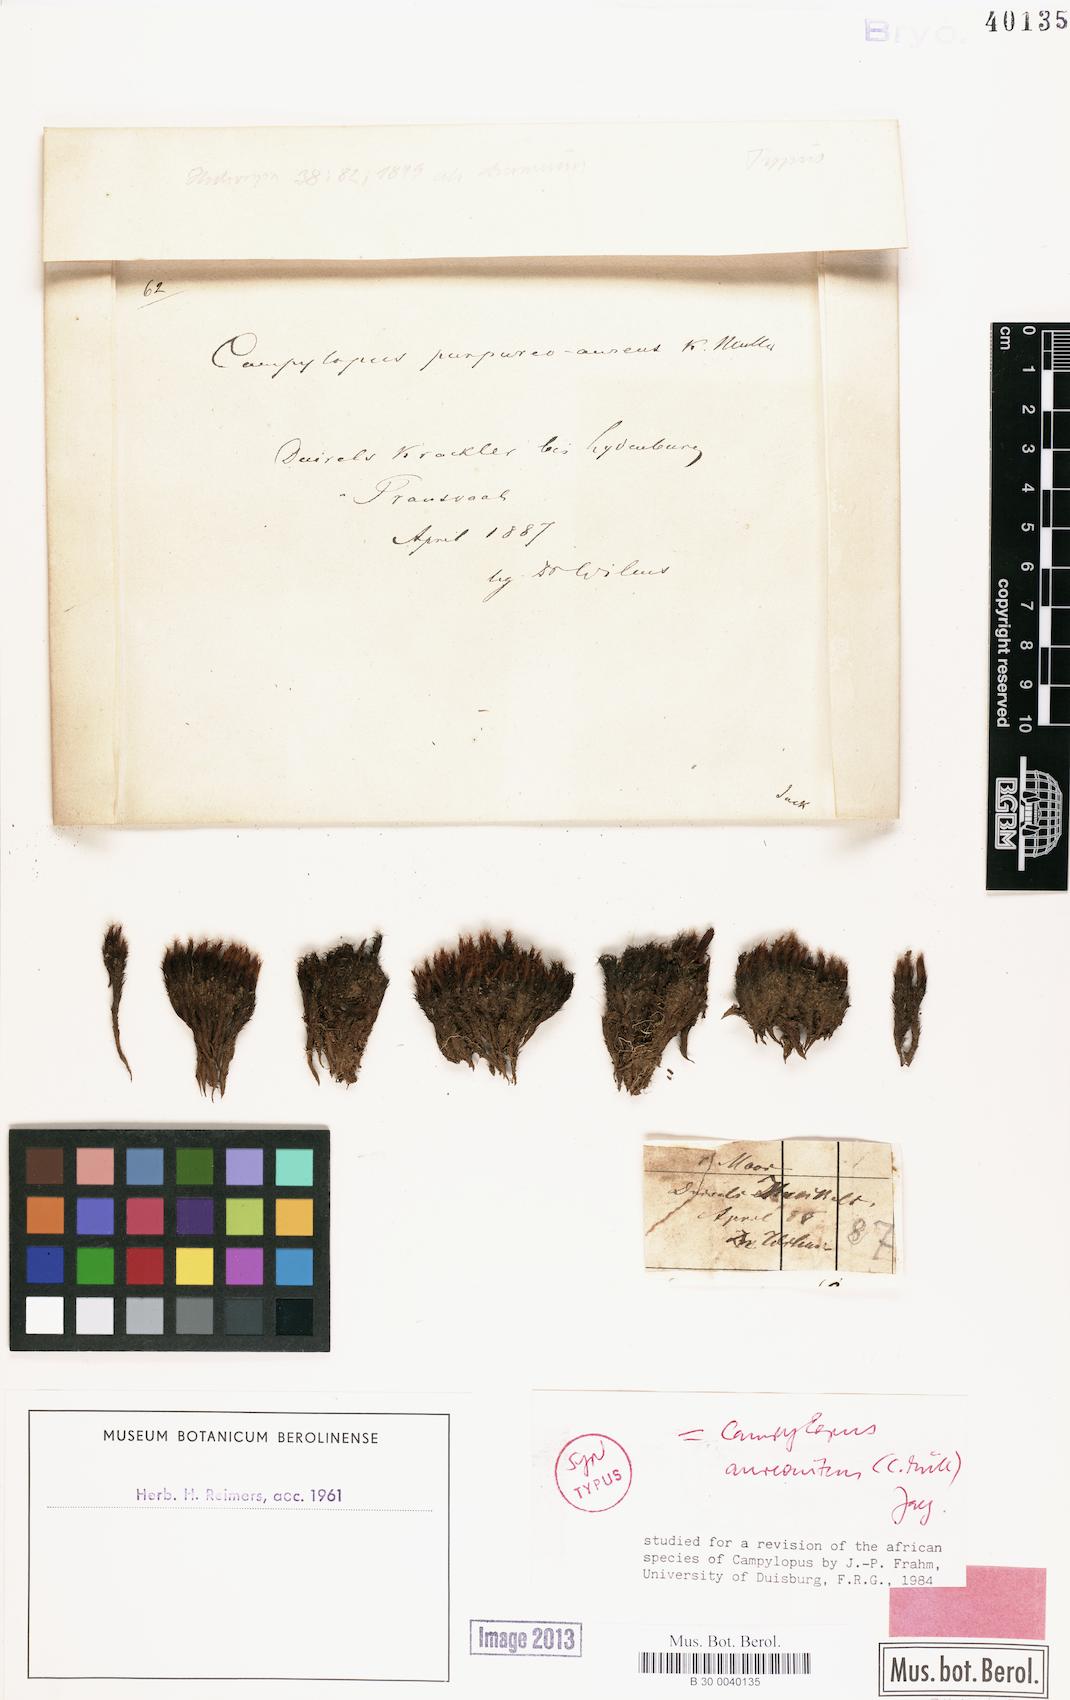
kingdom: Plantae
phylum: Bryophyta
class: Bryopsida
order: Dicranales
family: Leucobryaceae
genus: Campylopus
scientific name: Campylopus aureonitens
